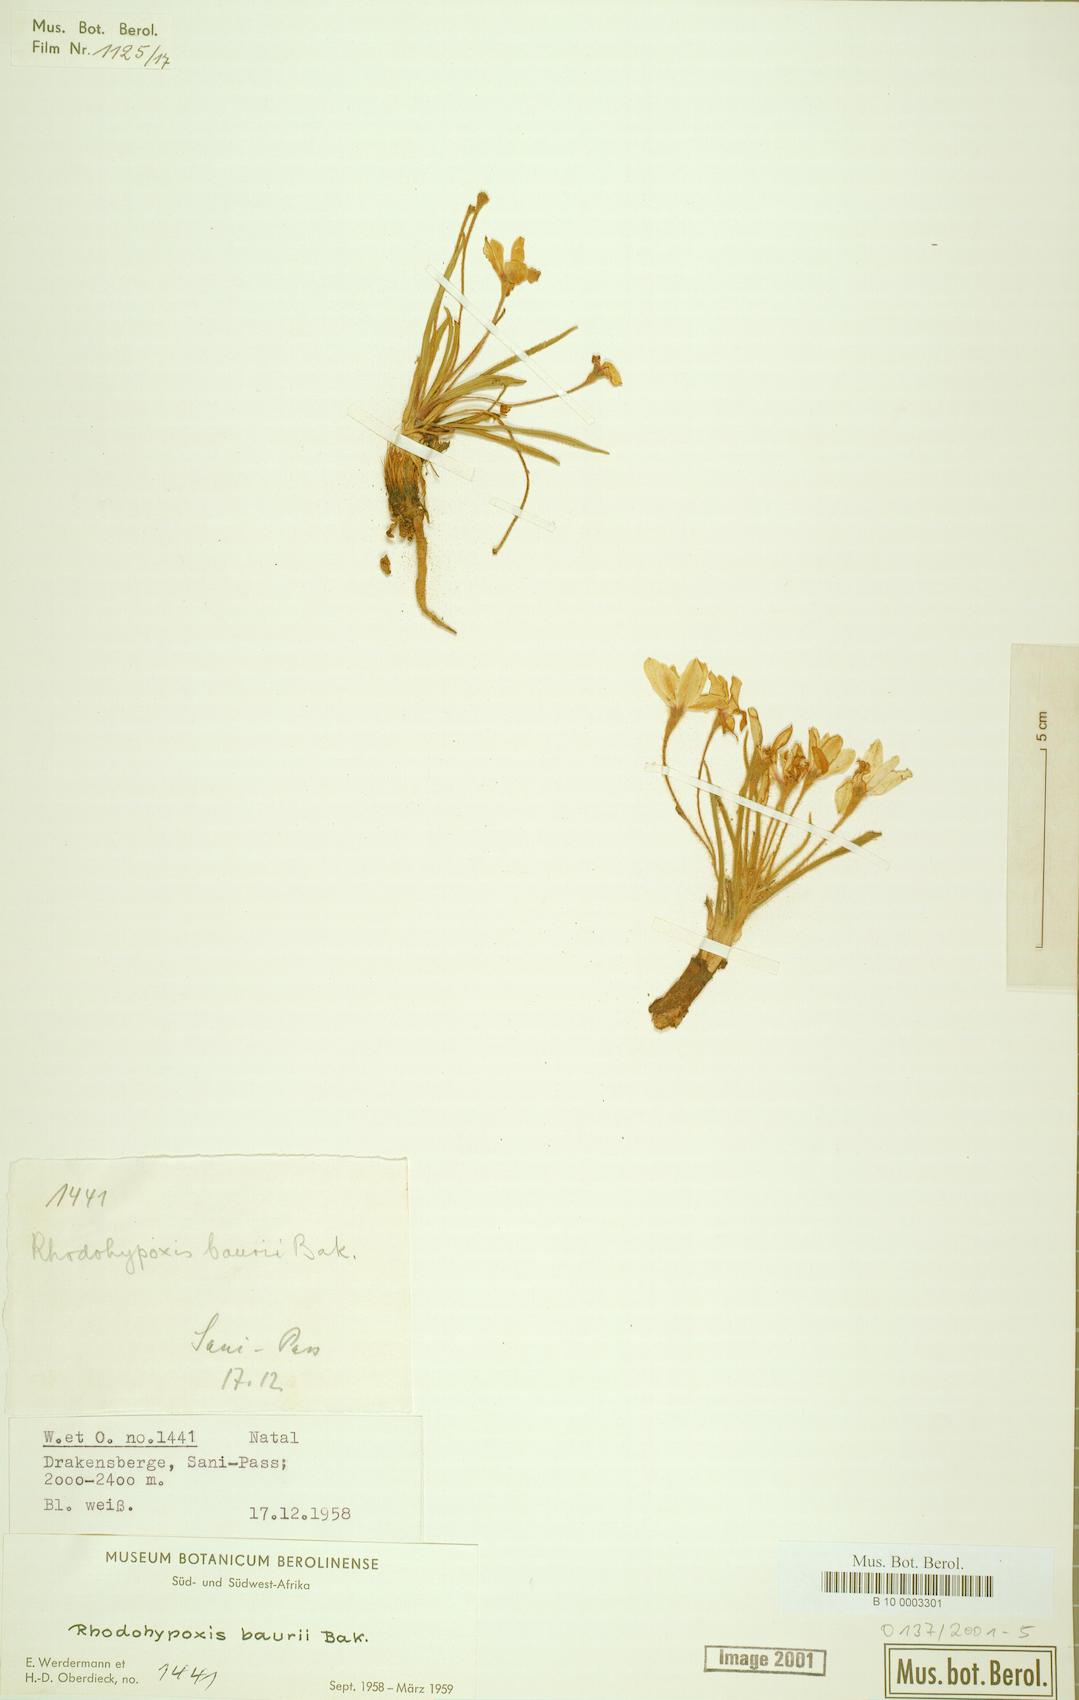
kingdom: Plantae
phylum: Tracheophyta
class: Liliopsida
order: Asparagales
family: Hypoxidaceae
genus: Hypoxis
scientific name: Hypoxis baurii
